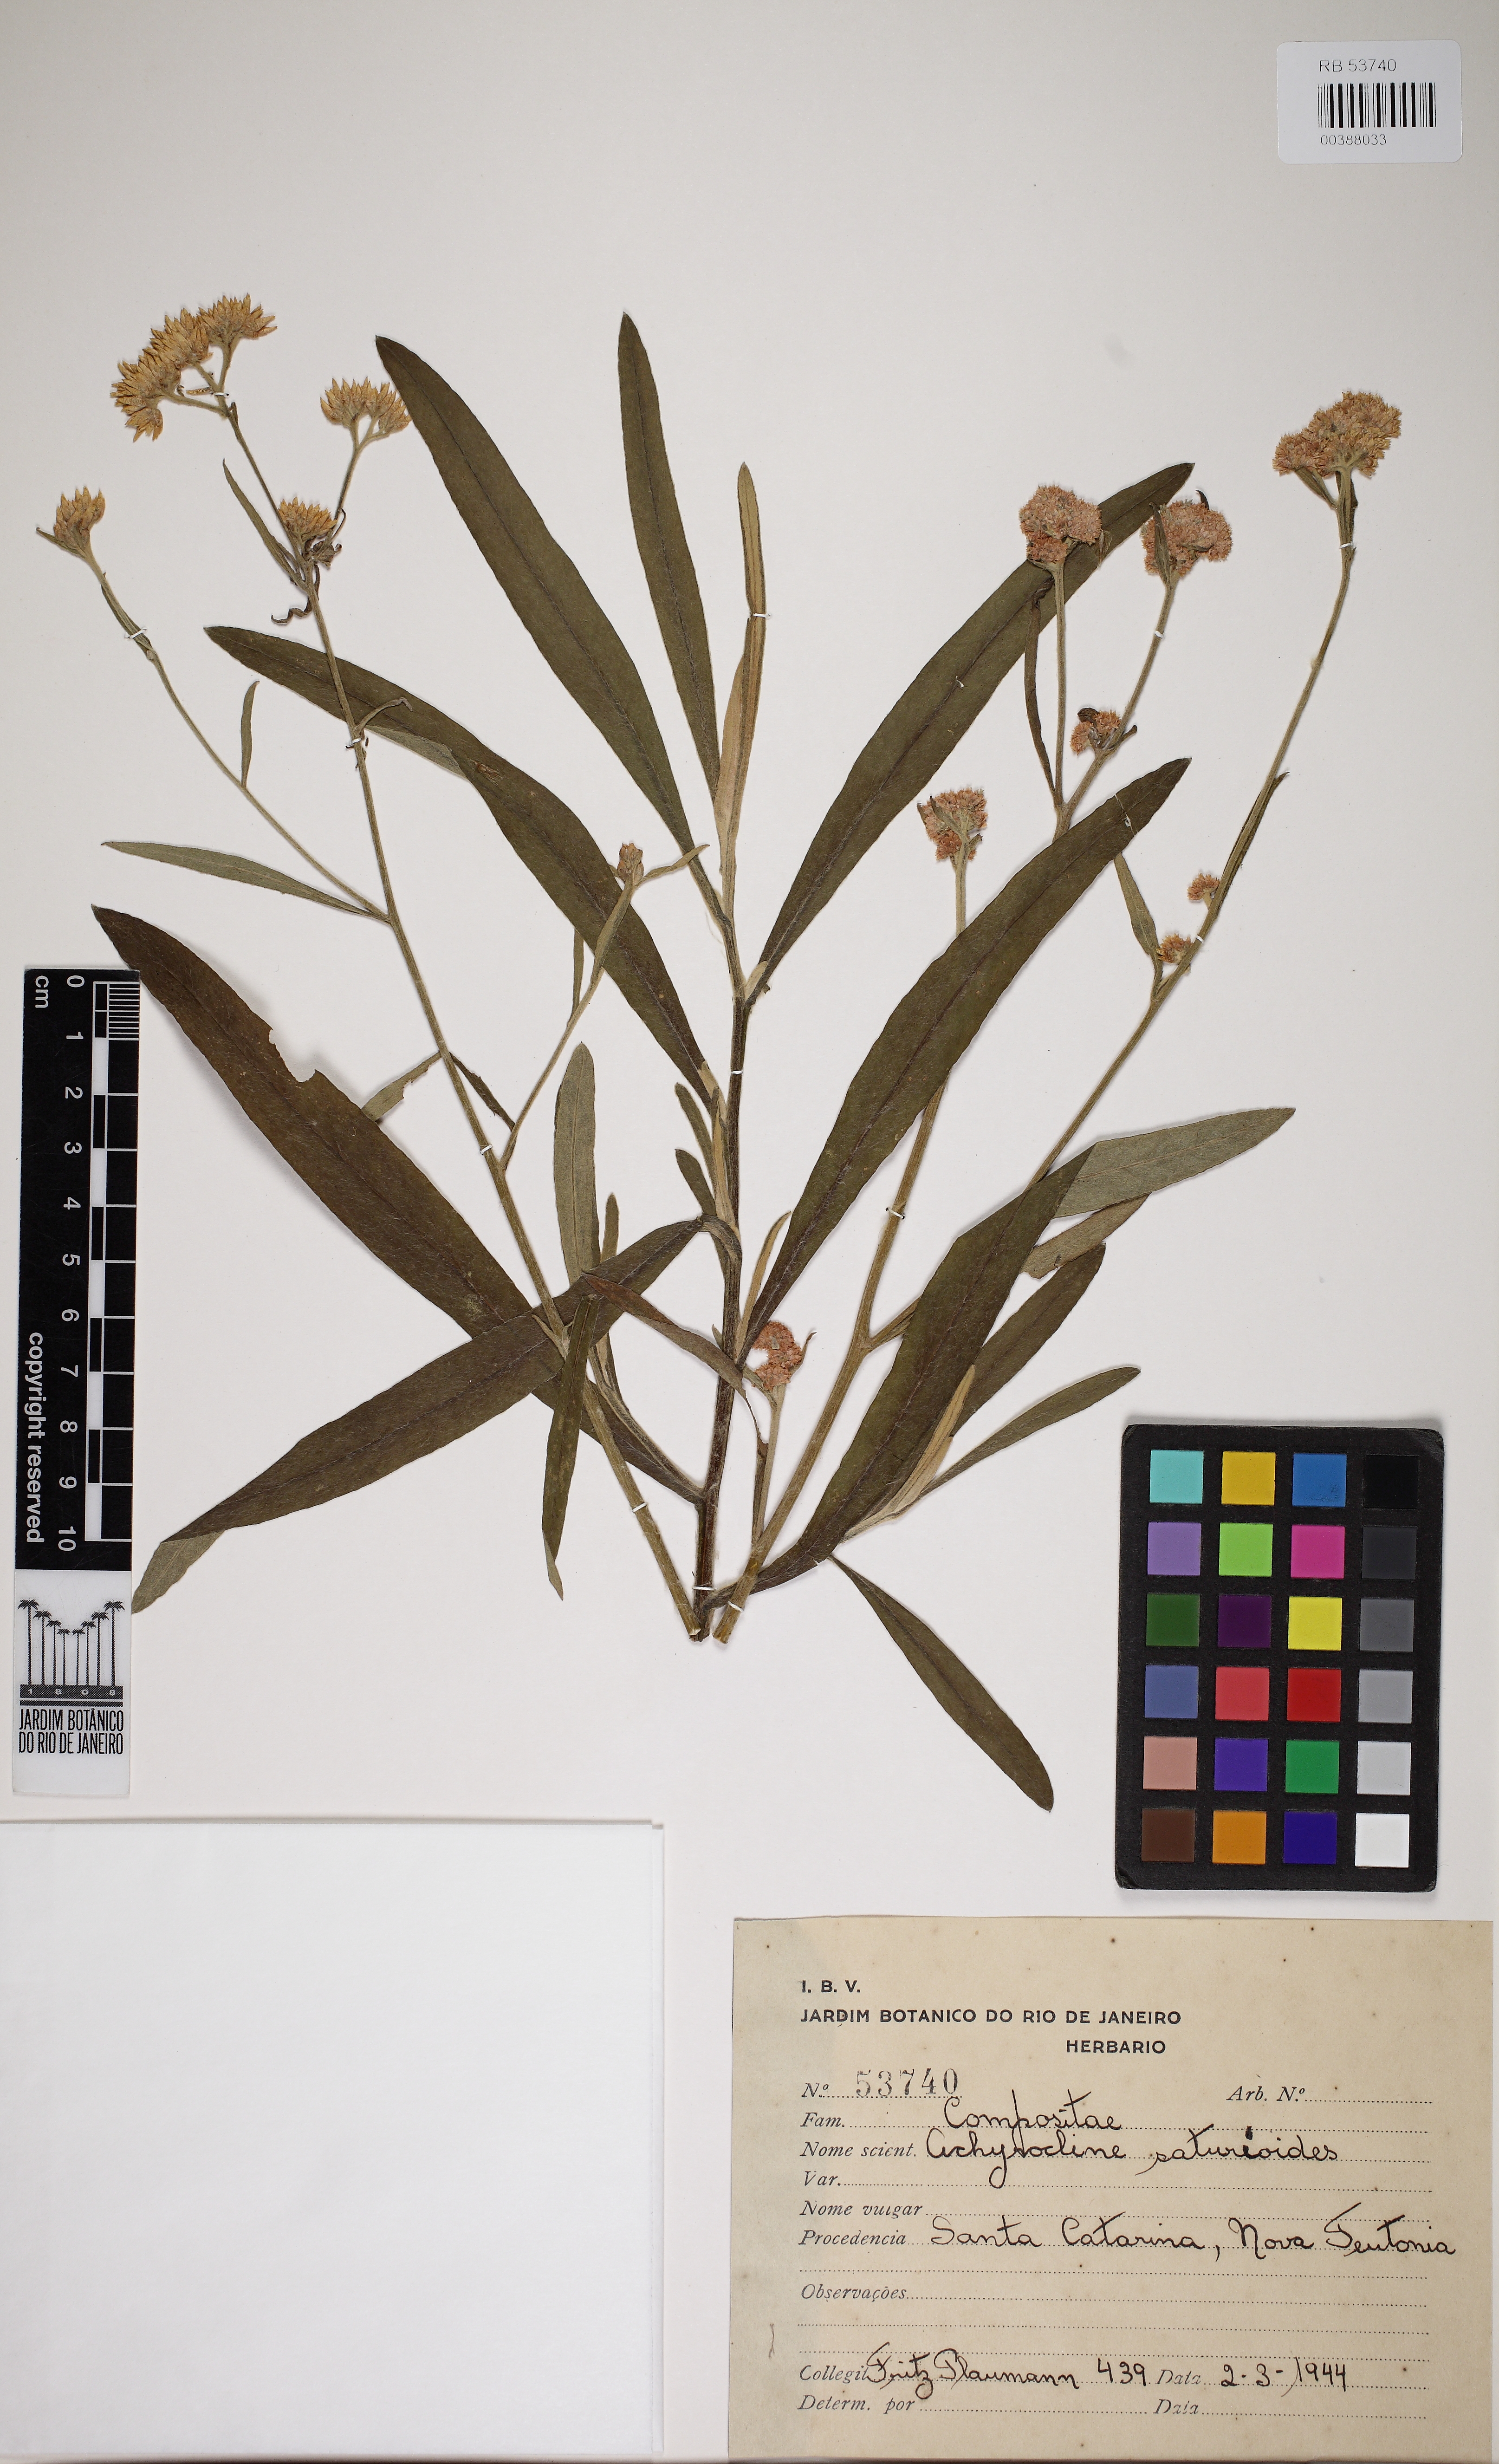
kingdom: Plantae
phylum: Tracheophyta
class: Magnoliopsida
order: Asterales
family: Asteraceae
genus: Achyrocline
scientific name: Achyrocline satureioides
